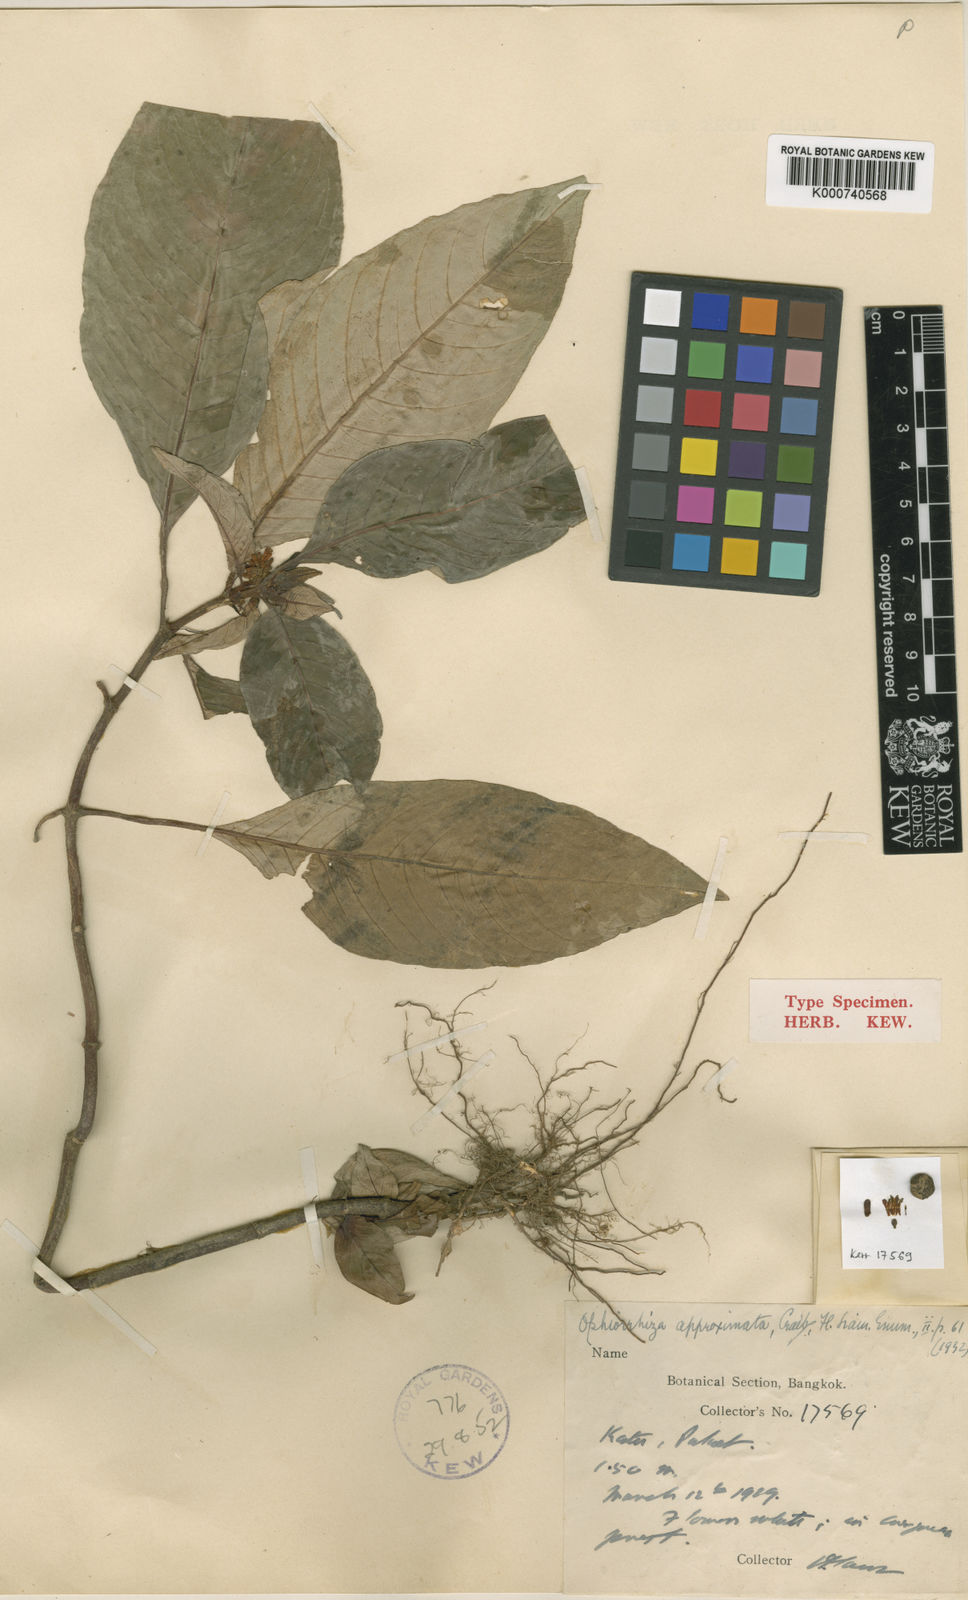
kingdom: Plantae
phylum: Tracheophyta
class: Magnoliopsida
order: Gentianales
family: Rubiaceae
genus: Ophiorrhiza
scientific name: Ophiorrhiza erubescens
